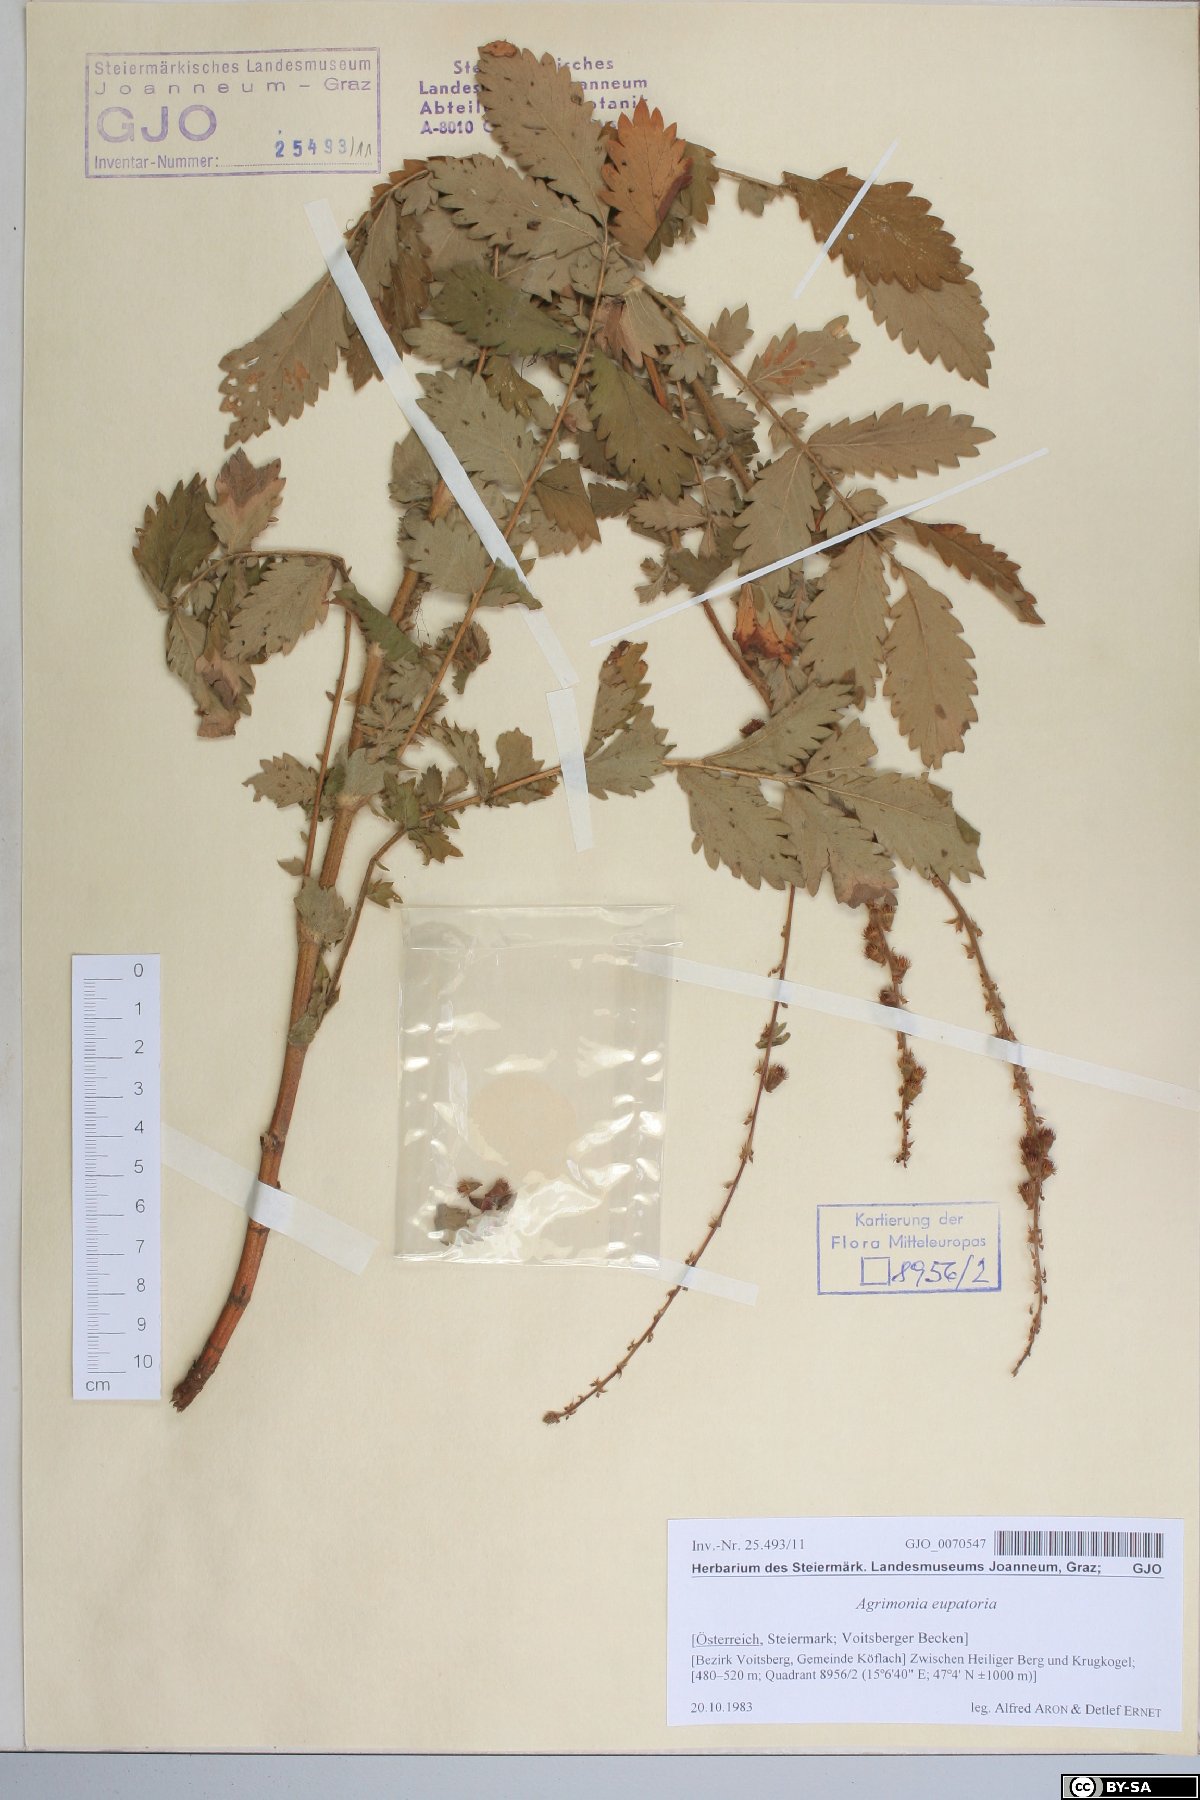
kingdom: Plantae
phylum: Tracheophyta
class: Magnoliopsida
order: Rosales
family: Rosaceae
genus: Agrimonia
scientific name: Agrimonia eupatoria
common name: Agrimony
